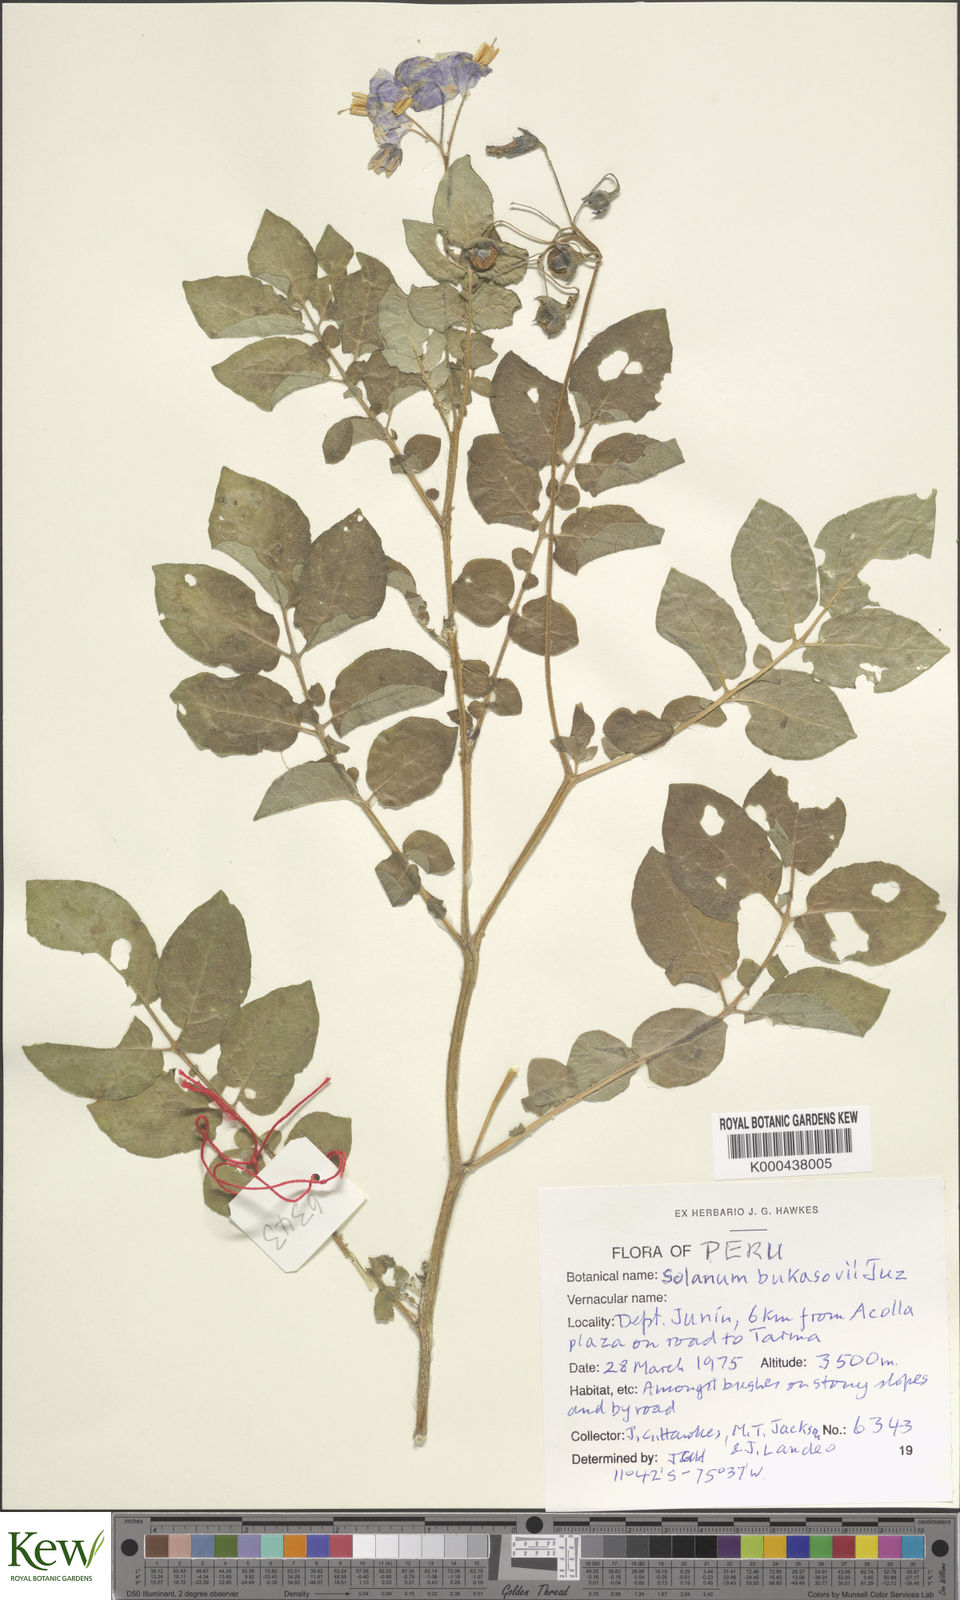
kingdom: Plantae
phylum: Tracheophyta
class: Magnoliopsida
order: Solanales
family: Solanaceae
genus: Solanum
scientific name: Solanum candolleanum
